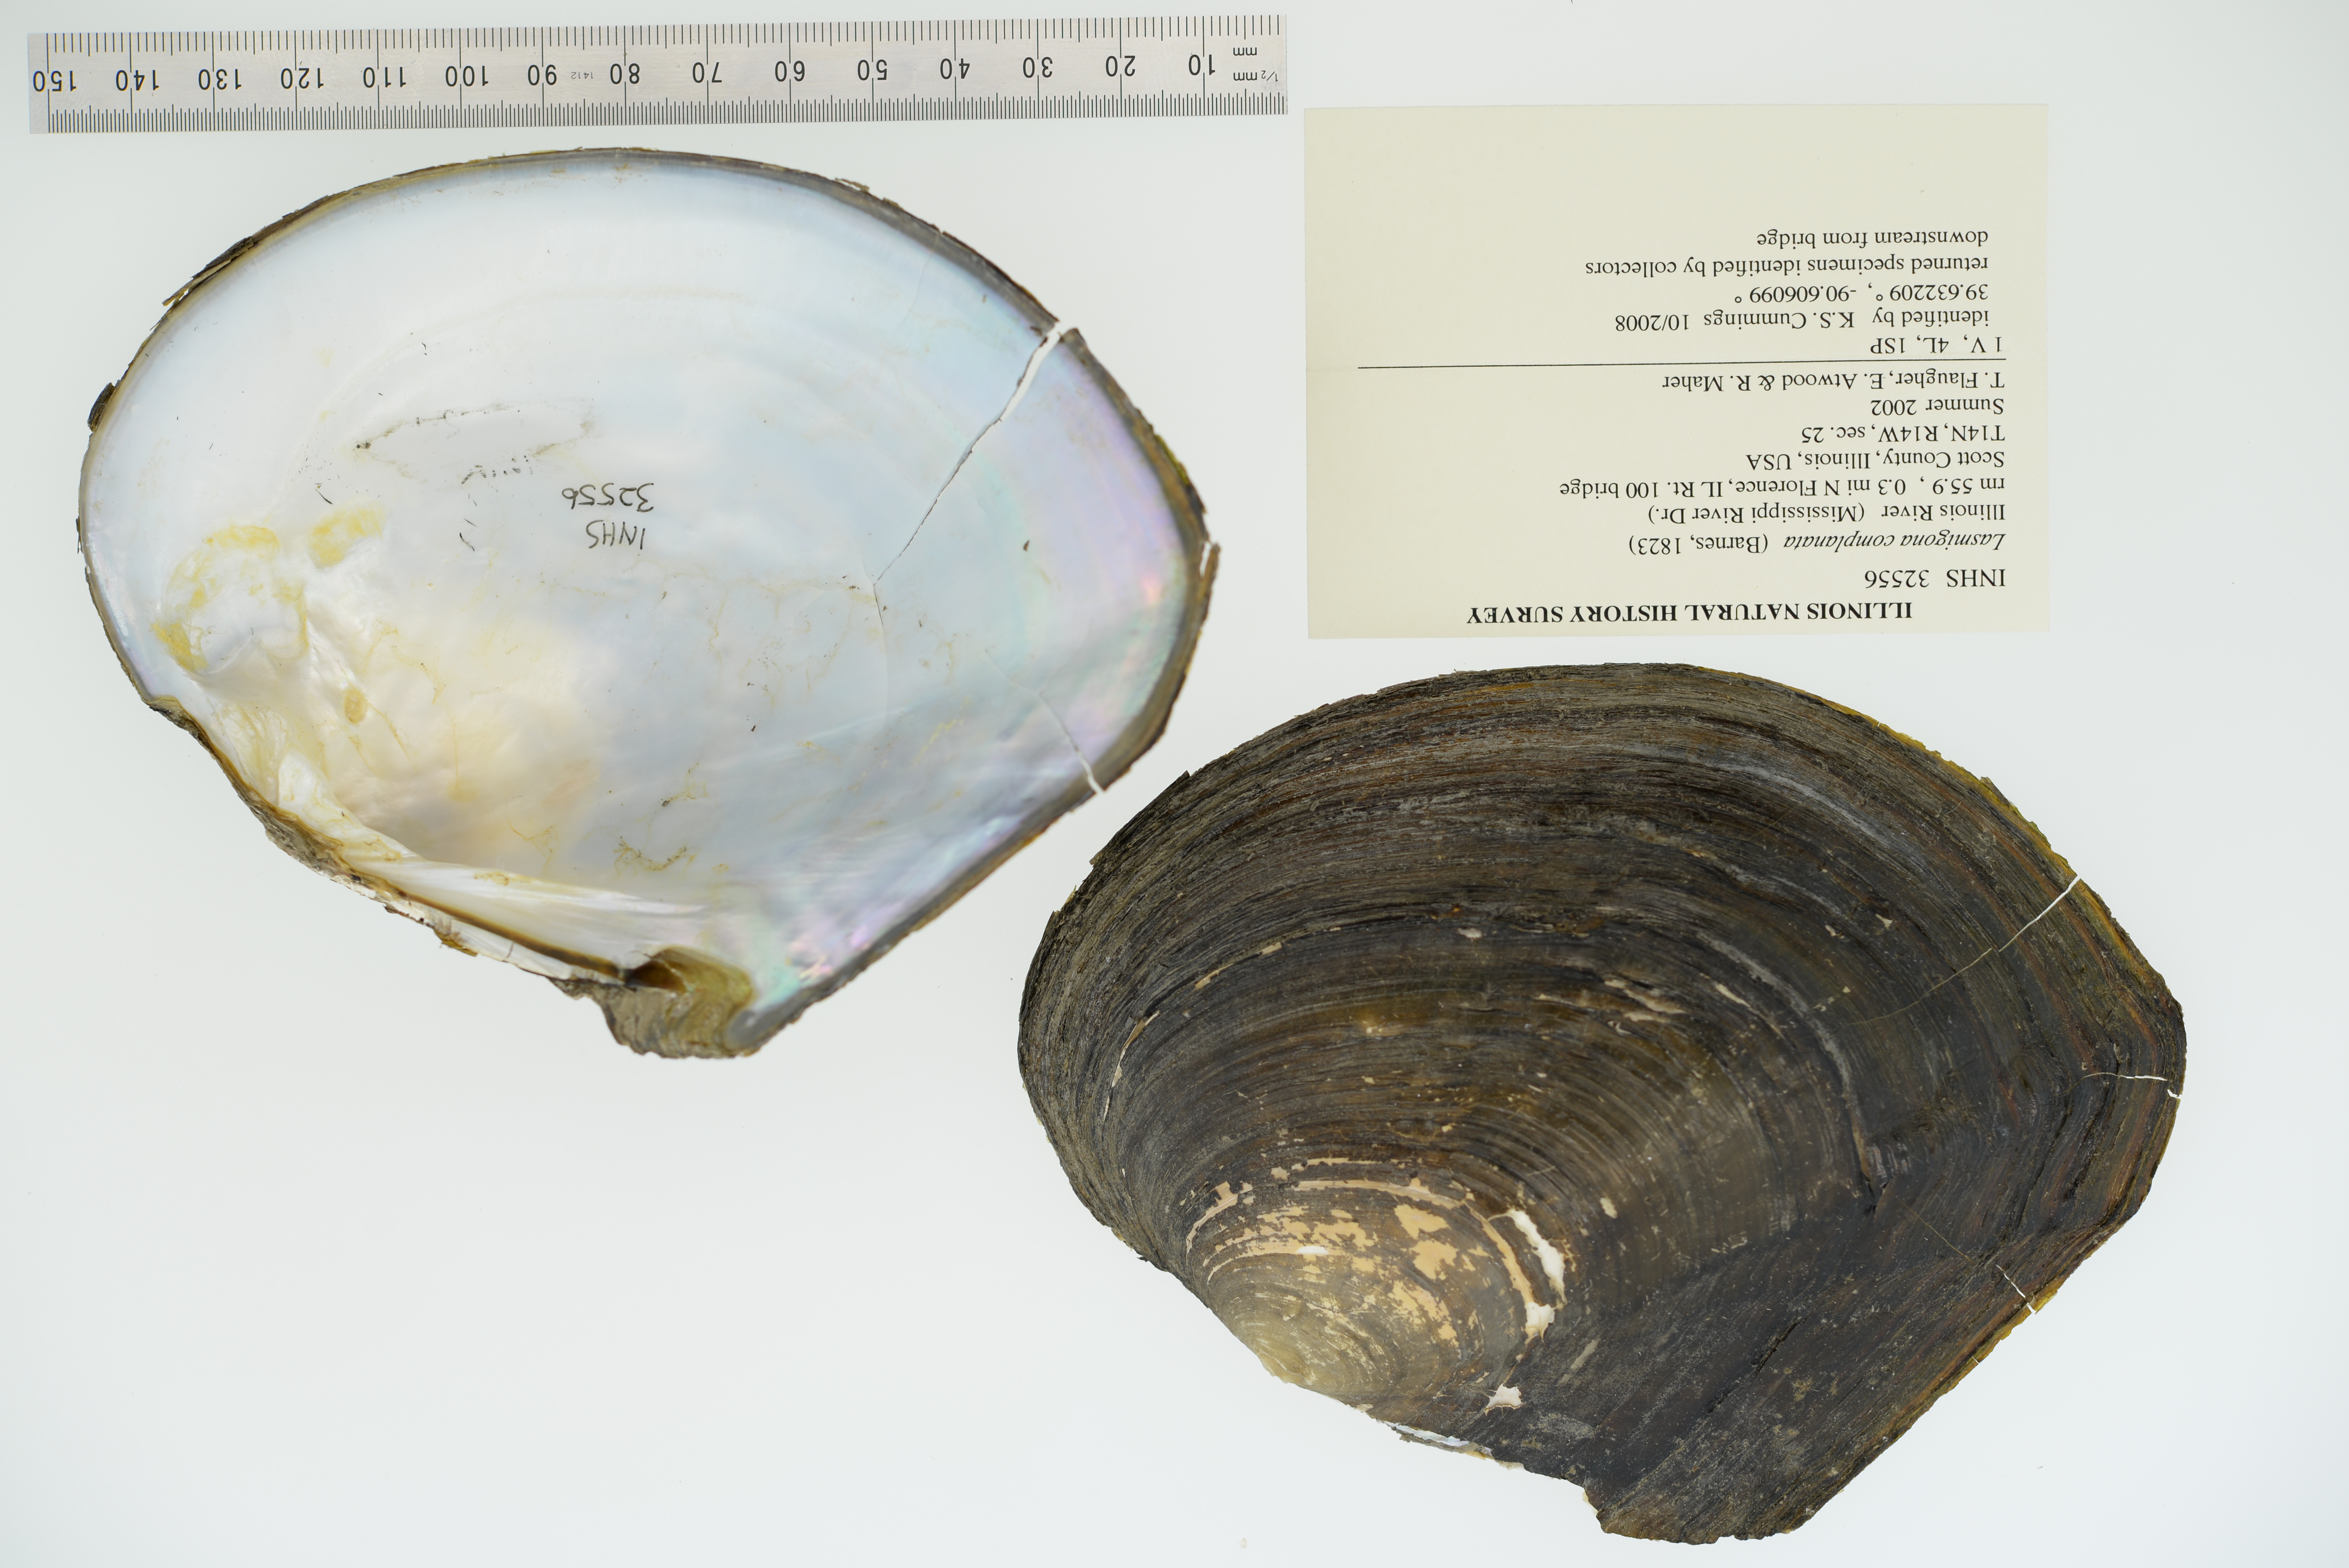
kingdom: Animalia
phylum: Mollusca
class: Bivalvia
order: Unionida
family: Unionidae
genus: Lasmigona
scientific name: Lasmigona complanata
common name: White heelsplitter
